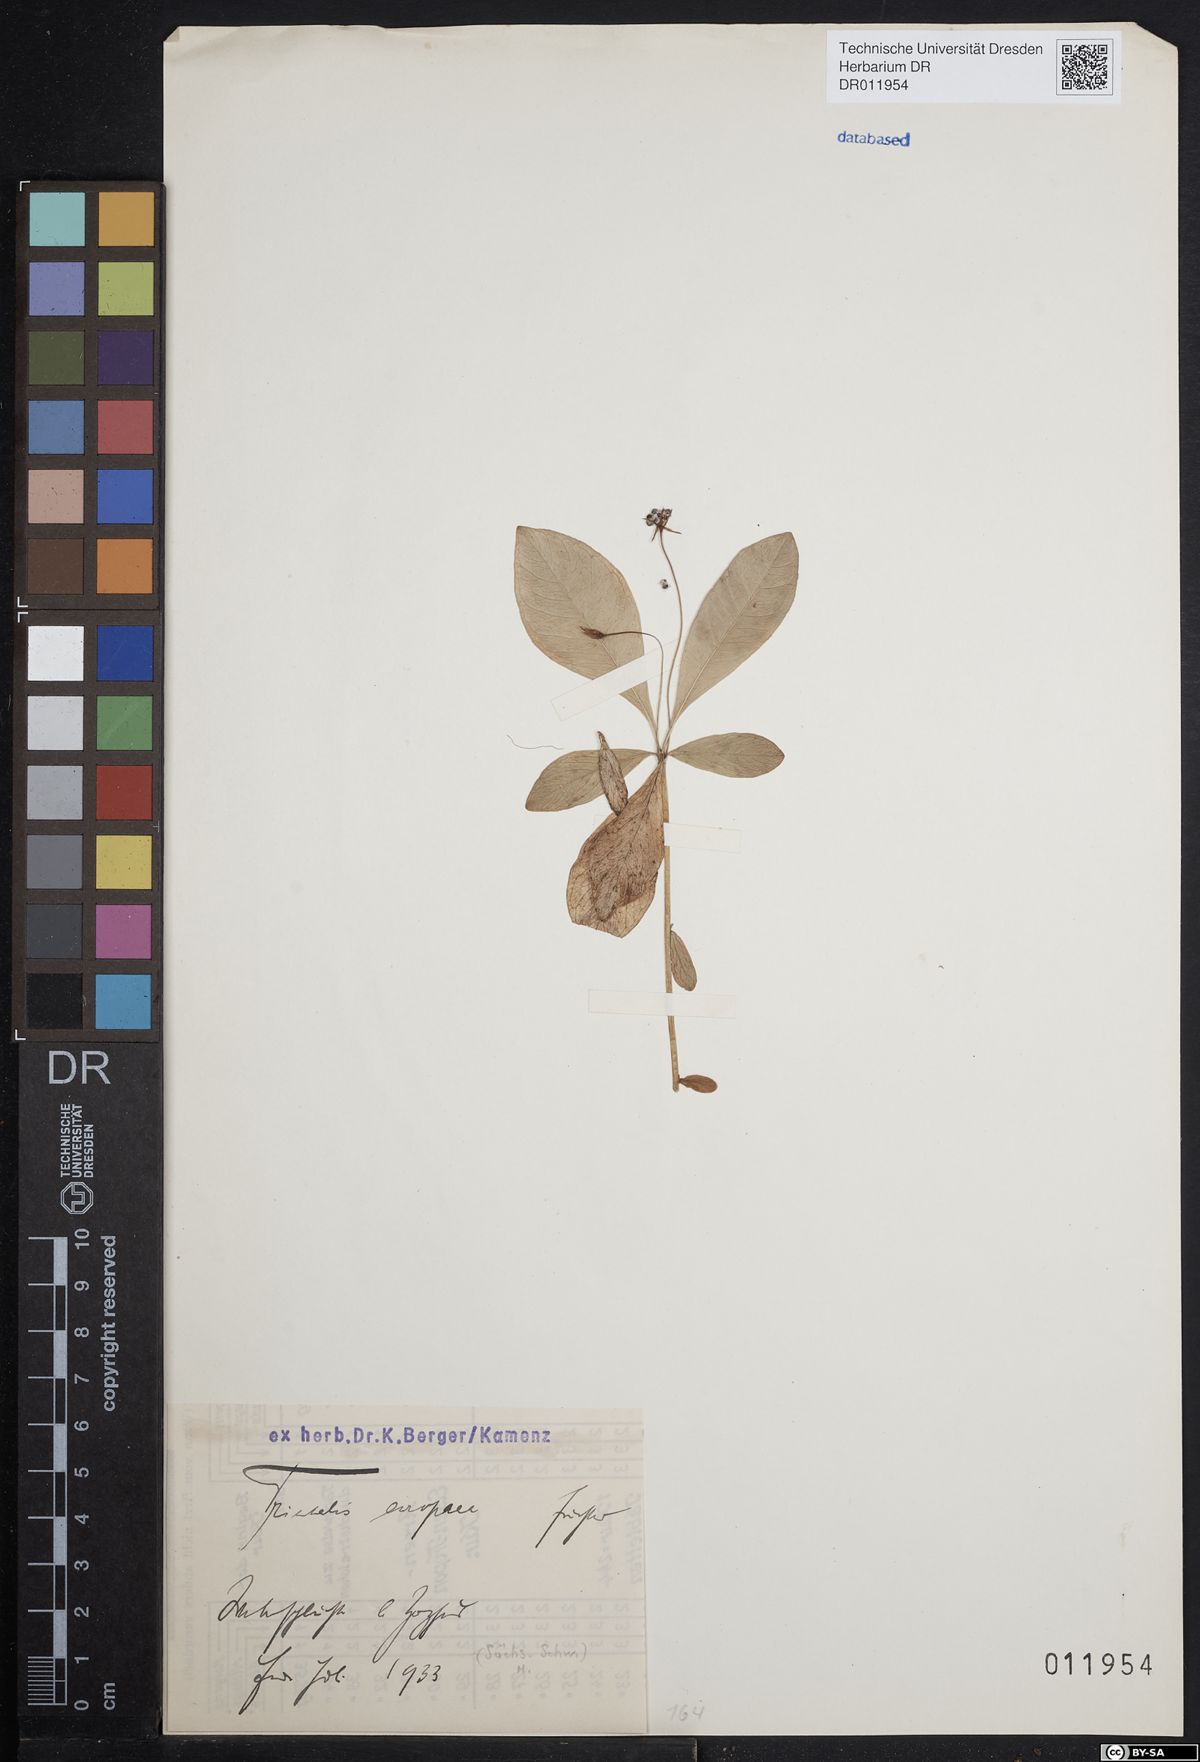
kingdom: Plantae
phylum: Tracheophyta
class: Magnoliopsida
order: Ericales
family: Primulaceae
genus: Lysimachia
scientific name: Lysimachia europaea
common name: Arctic starflower
